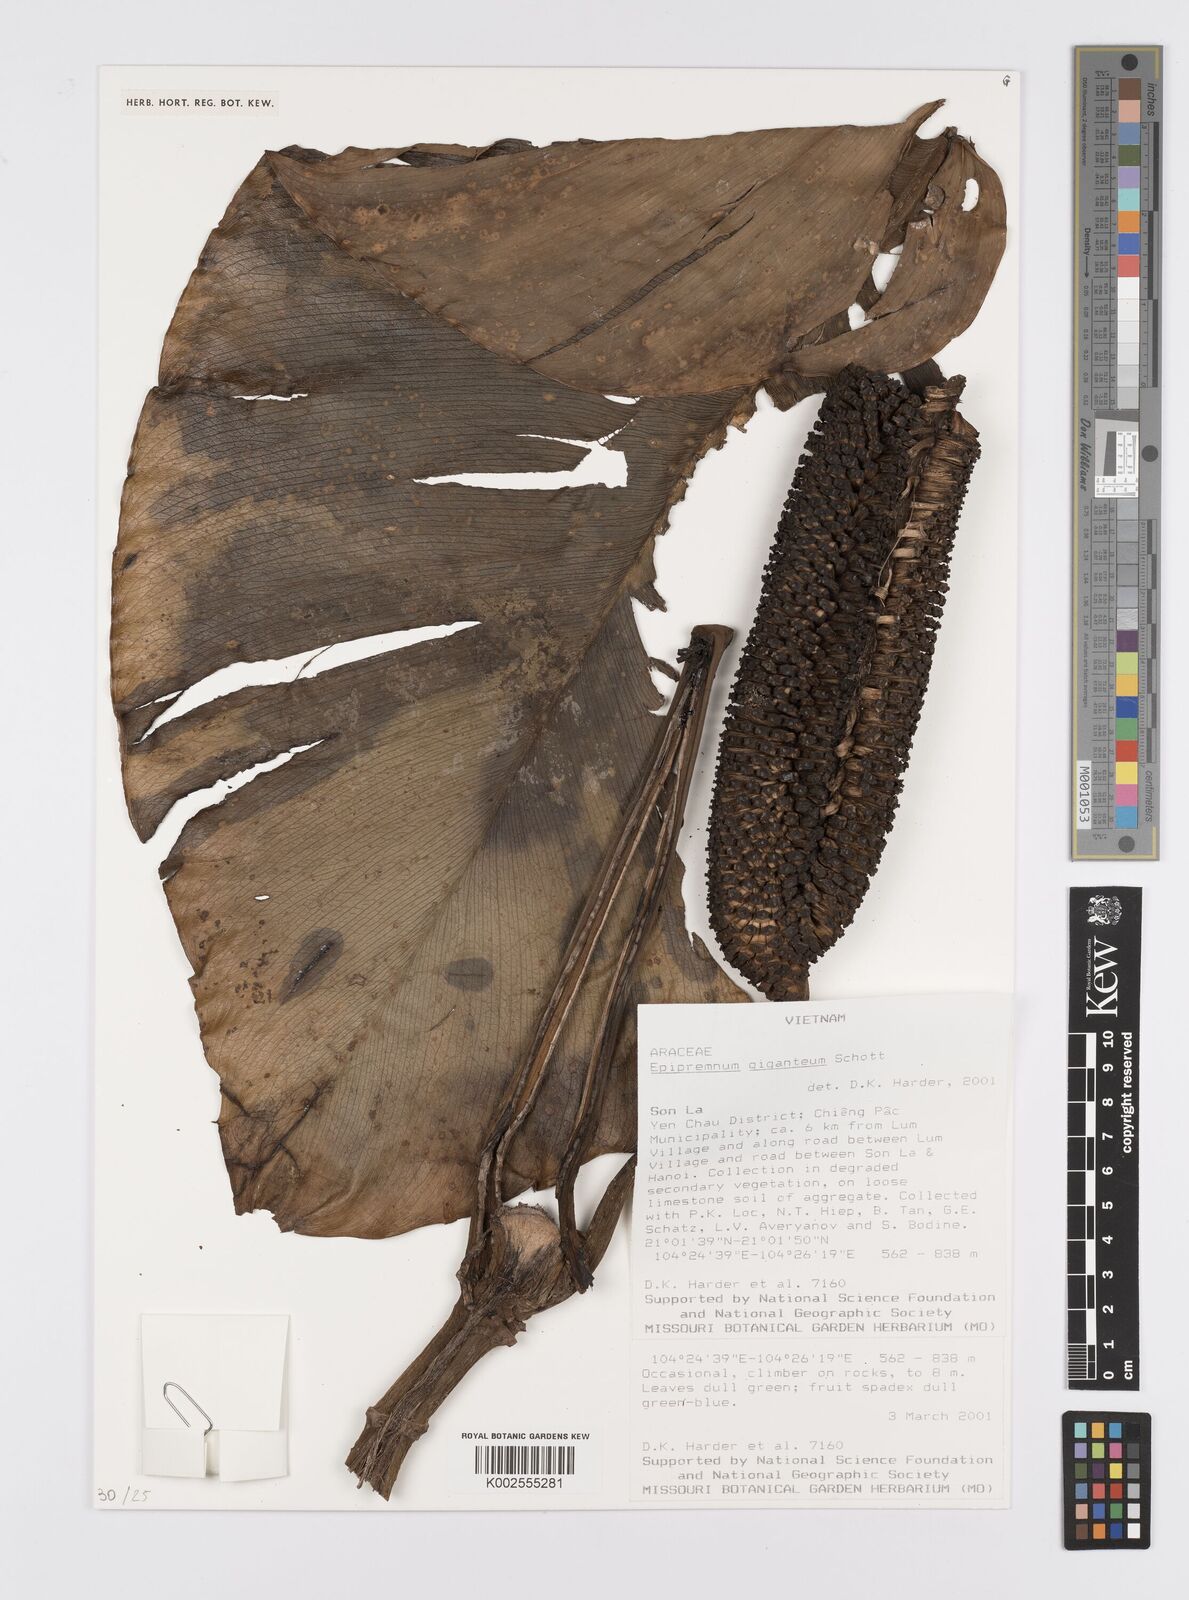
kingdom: Plantae
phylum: Tracheophyta
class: Liliopsida
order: Alismatales
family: Araceae
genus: Epipremnum
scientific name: Epipremnum giganteum
